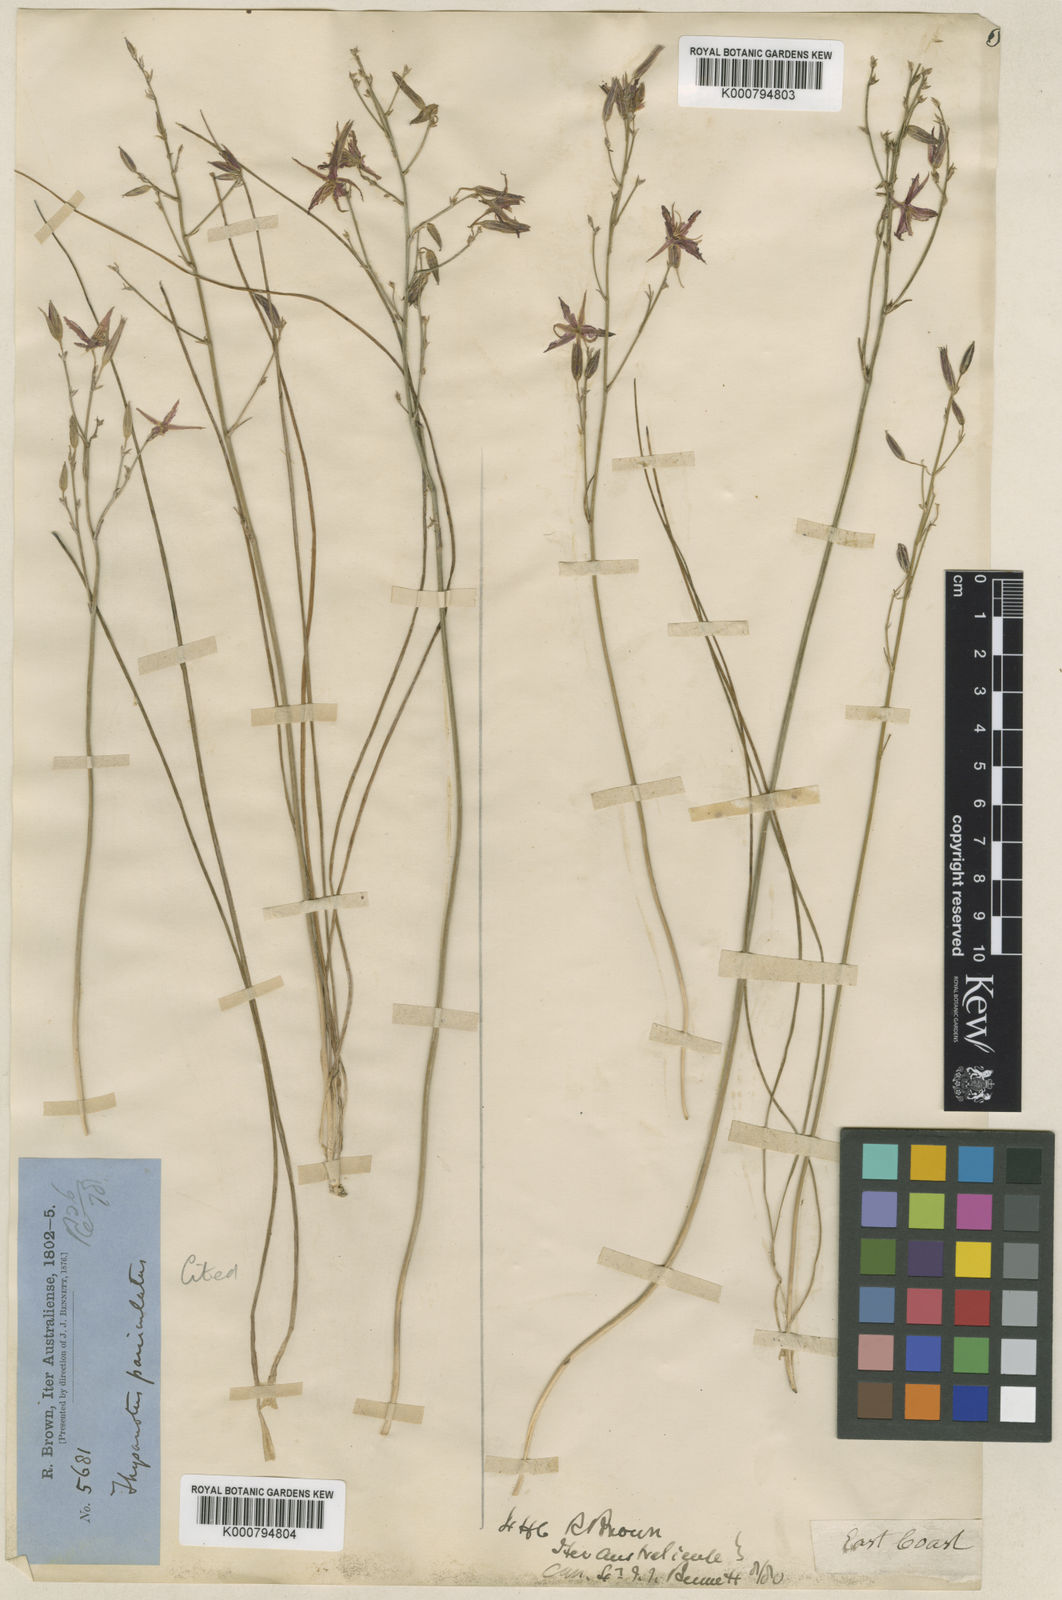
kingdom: Plantae
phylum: Tracheophyta
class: Liliopsida
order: Asparagales
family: Asparagaceae
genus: Thysanotus
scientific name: Thysanotus banksii
